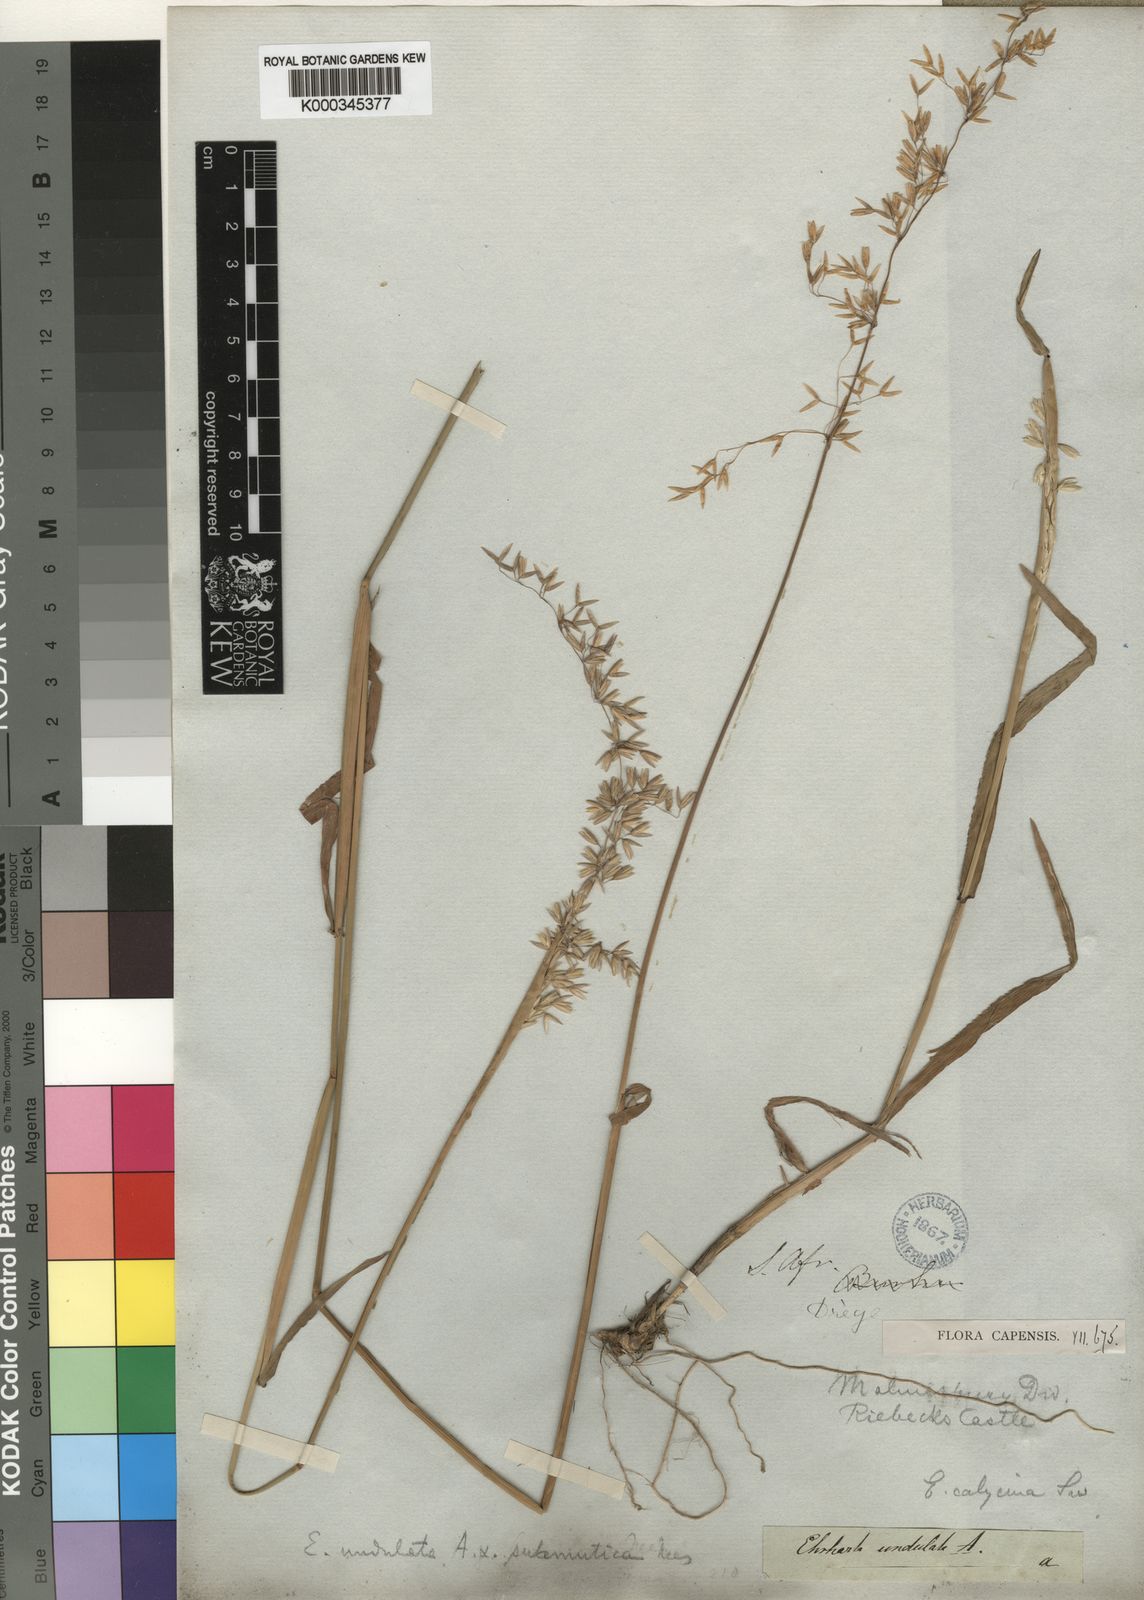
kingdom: Plantae
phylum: Tracheophyta
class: Liliopsida
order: Poales
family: Poaceae
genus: Ehrharta
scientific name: Ehrharta calycina
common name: Perennial veldtgrass
